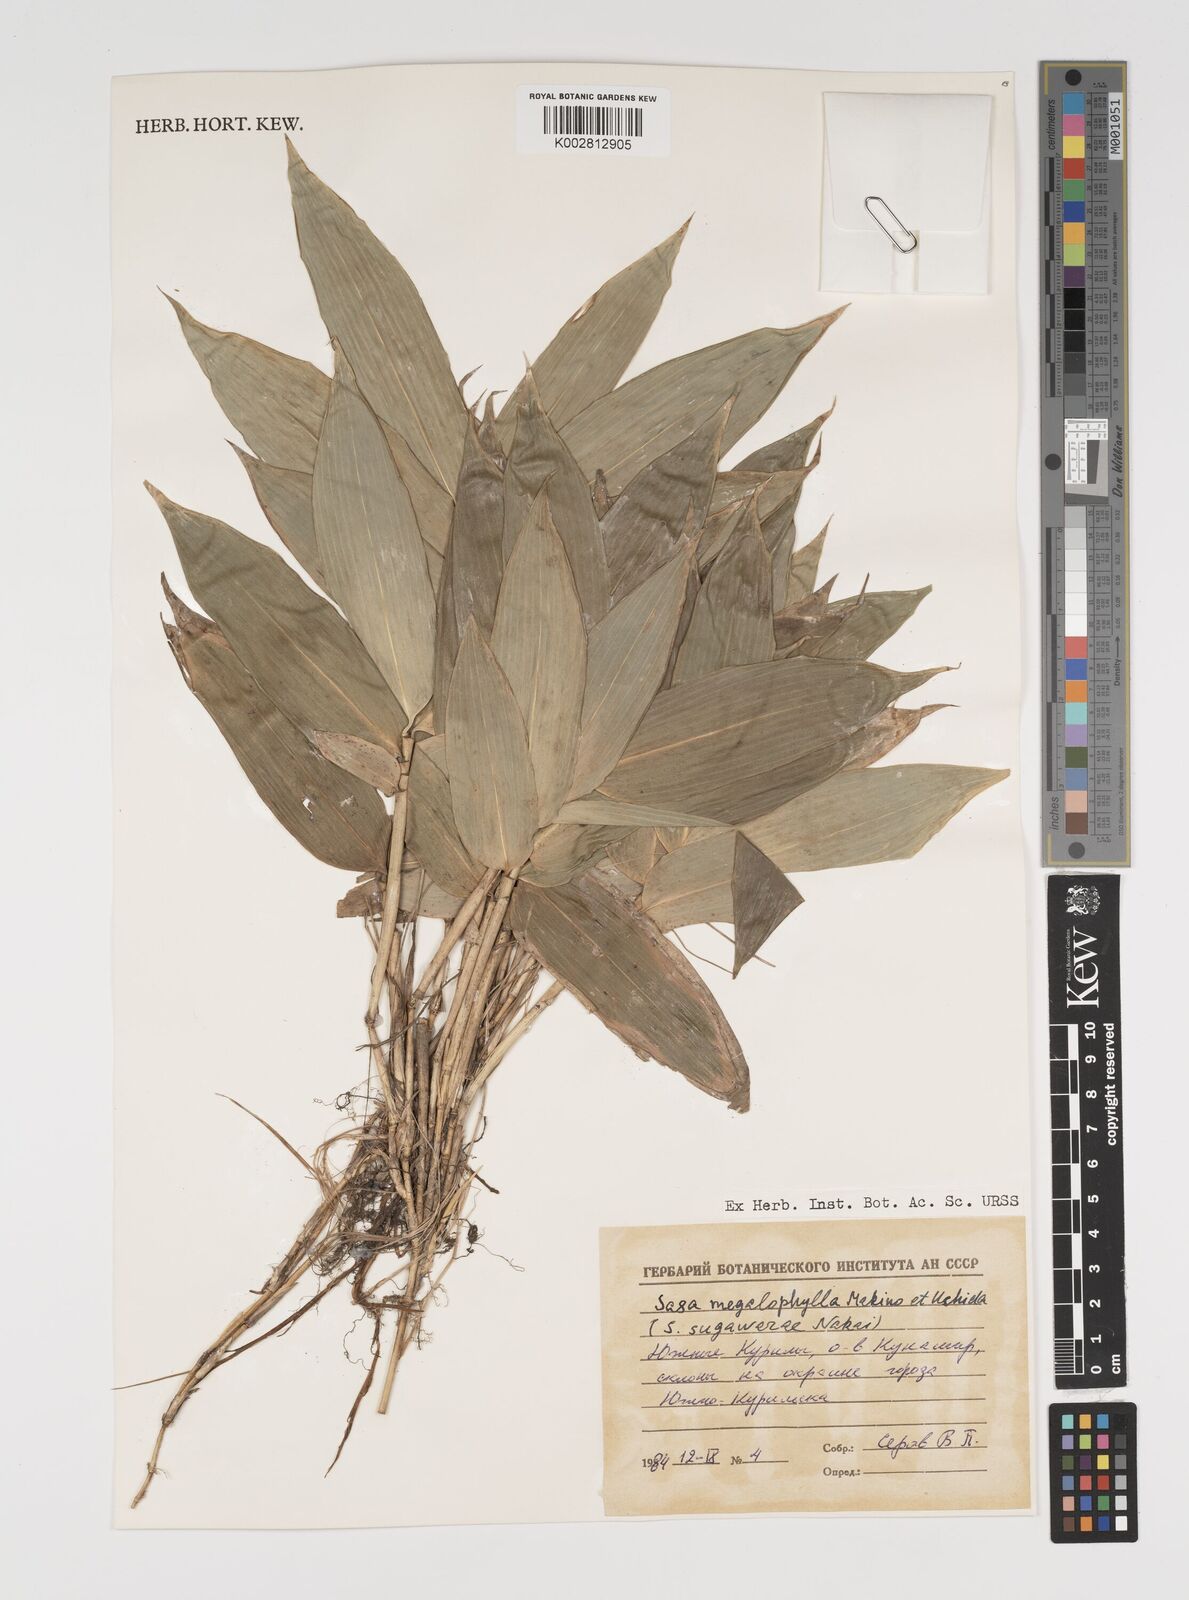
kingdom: Plantae
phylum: Tracheophyta
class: Liliopsida
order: Poales
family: Poaceae
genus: Sasa
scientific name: Sasa megalophylla
